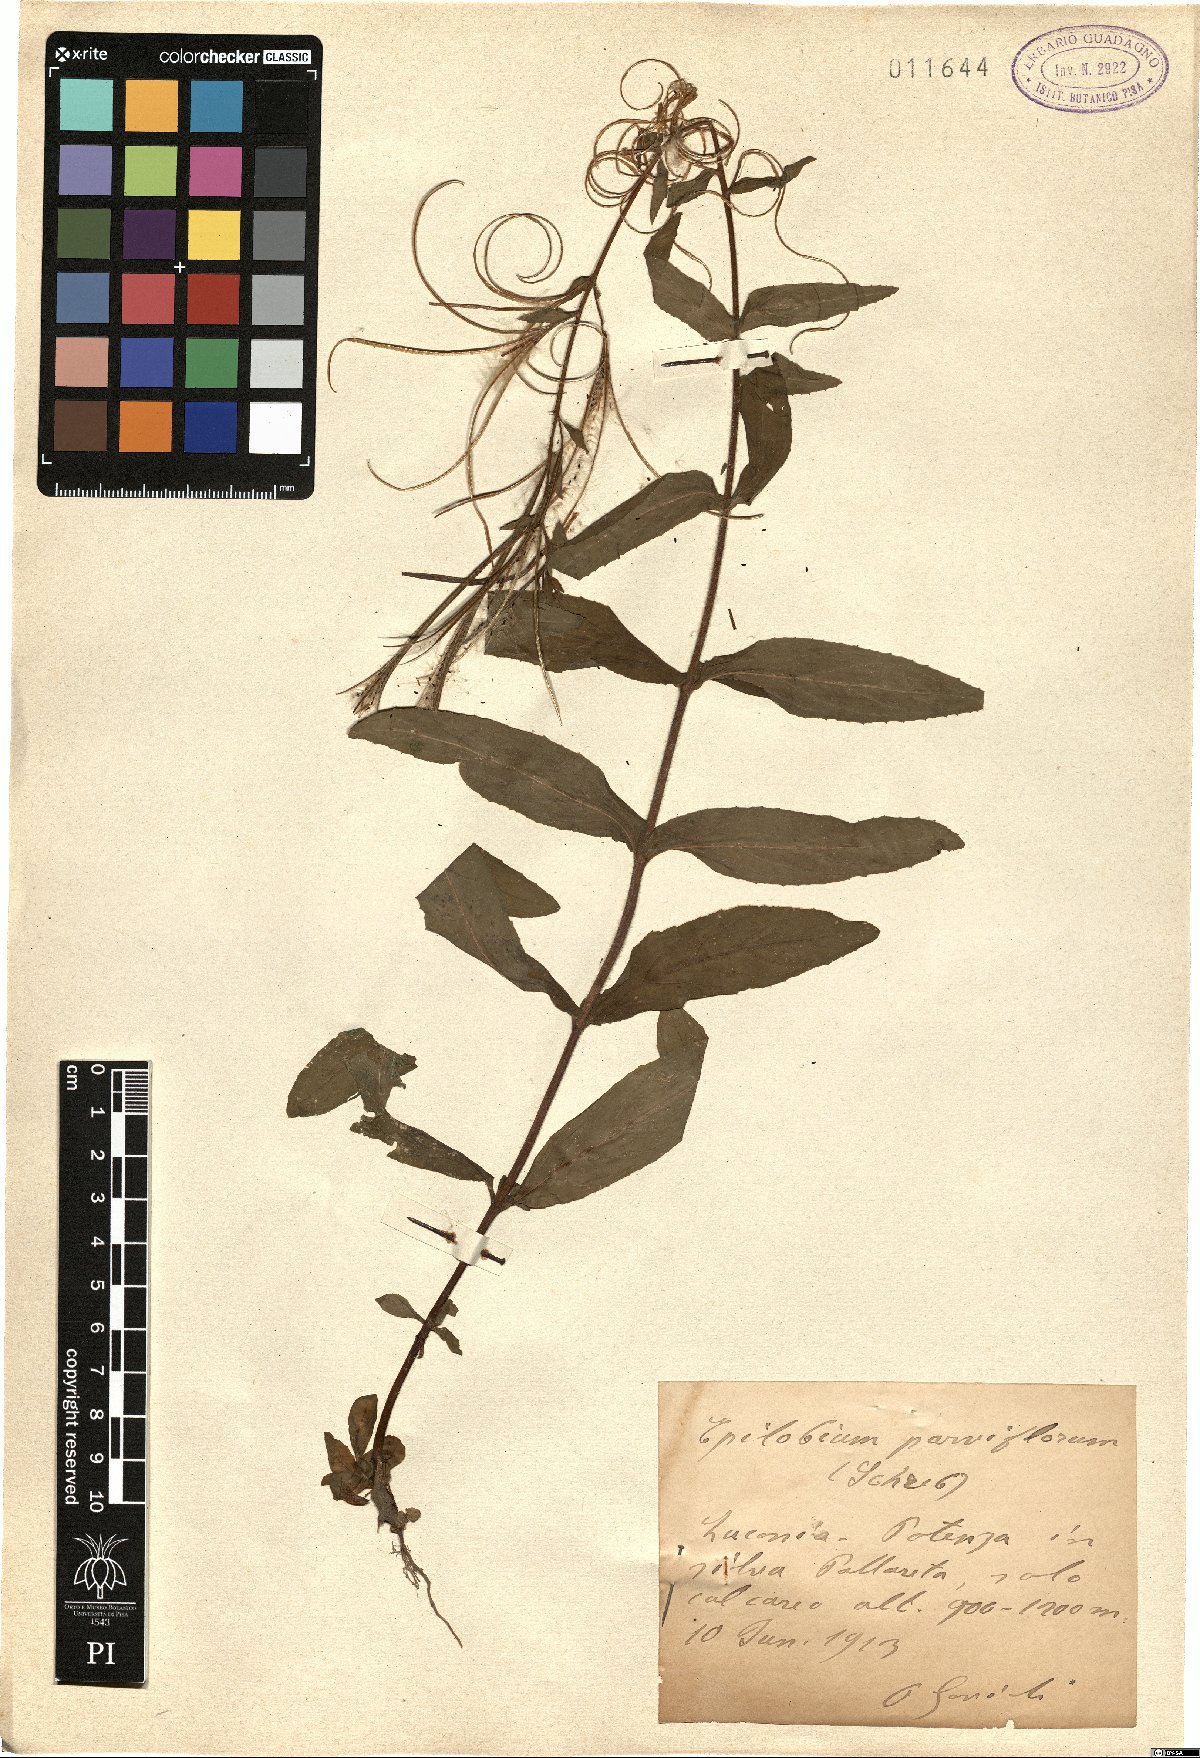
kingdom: Plantae
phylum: Tracheophyta
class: Magnoliopsida
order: Myrtales
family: Onagraceae
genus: Epilobium
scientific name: Epilobium parviflorum
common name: Hoary willowherb
